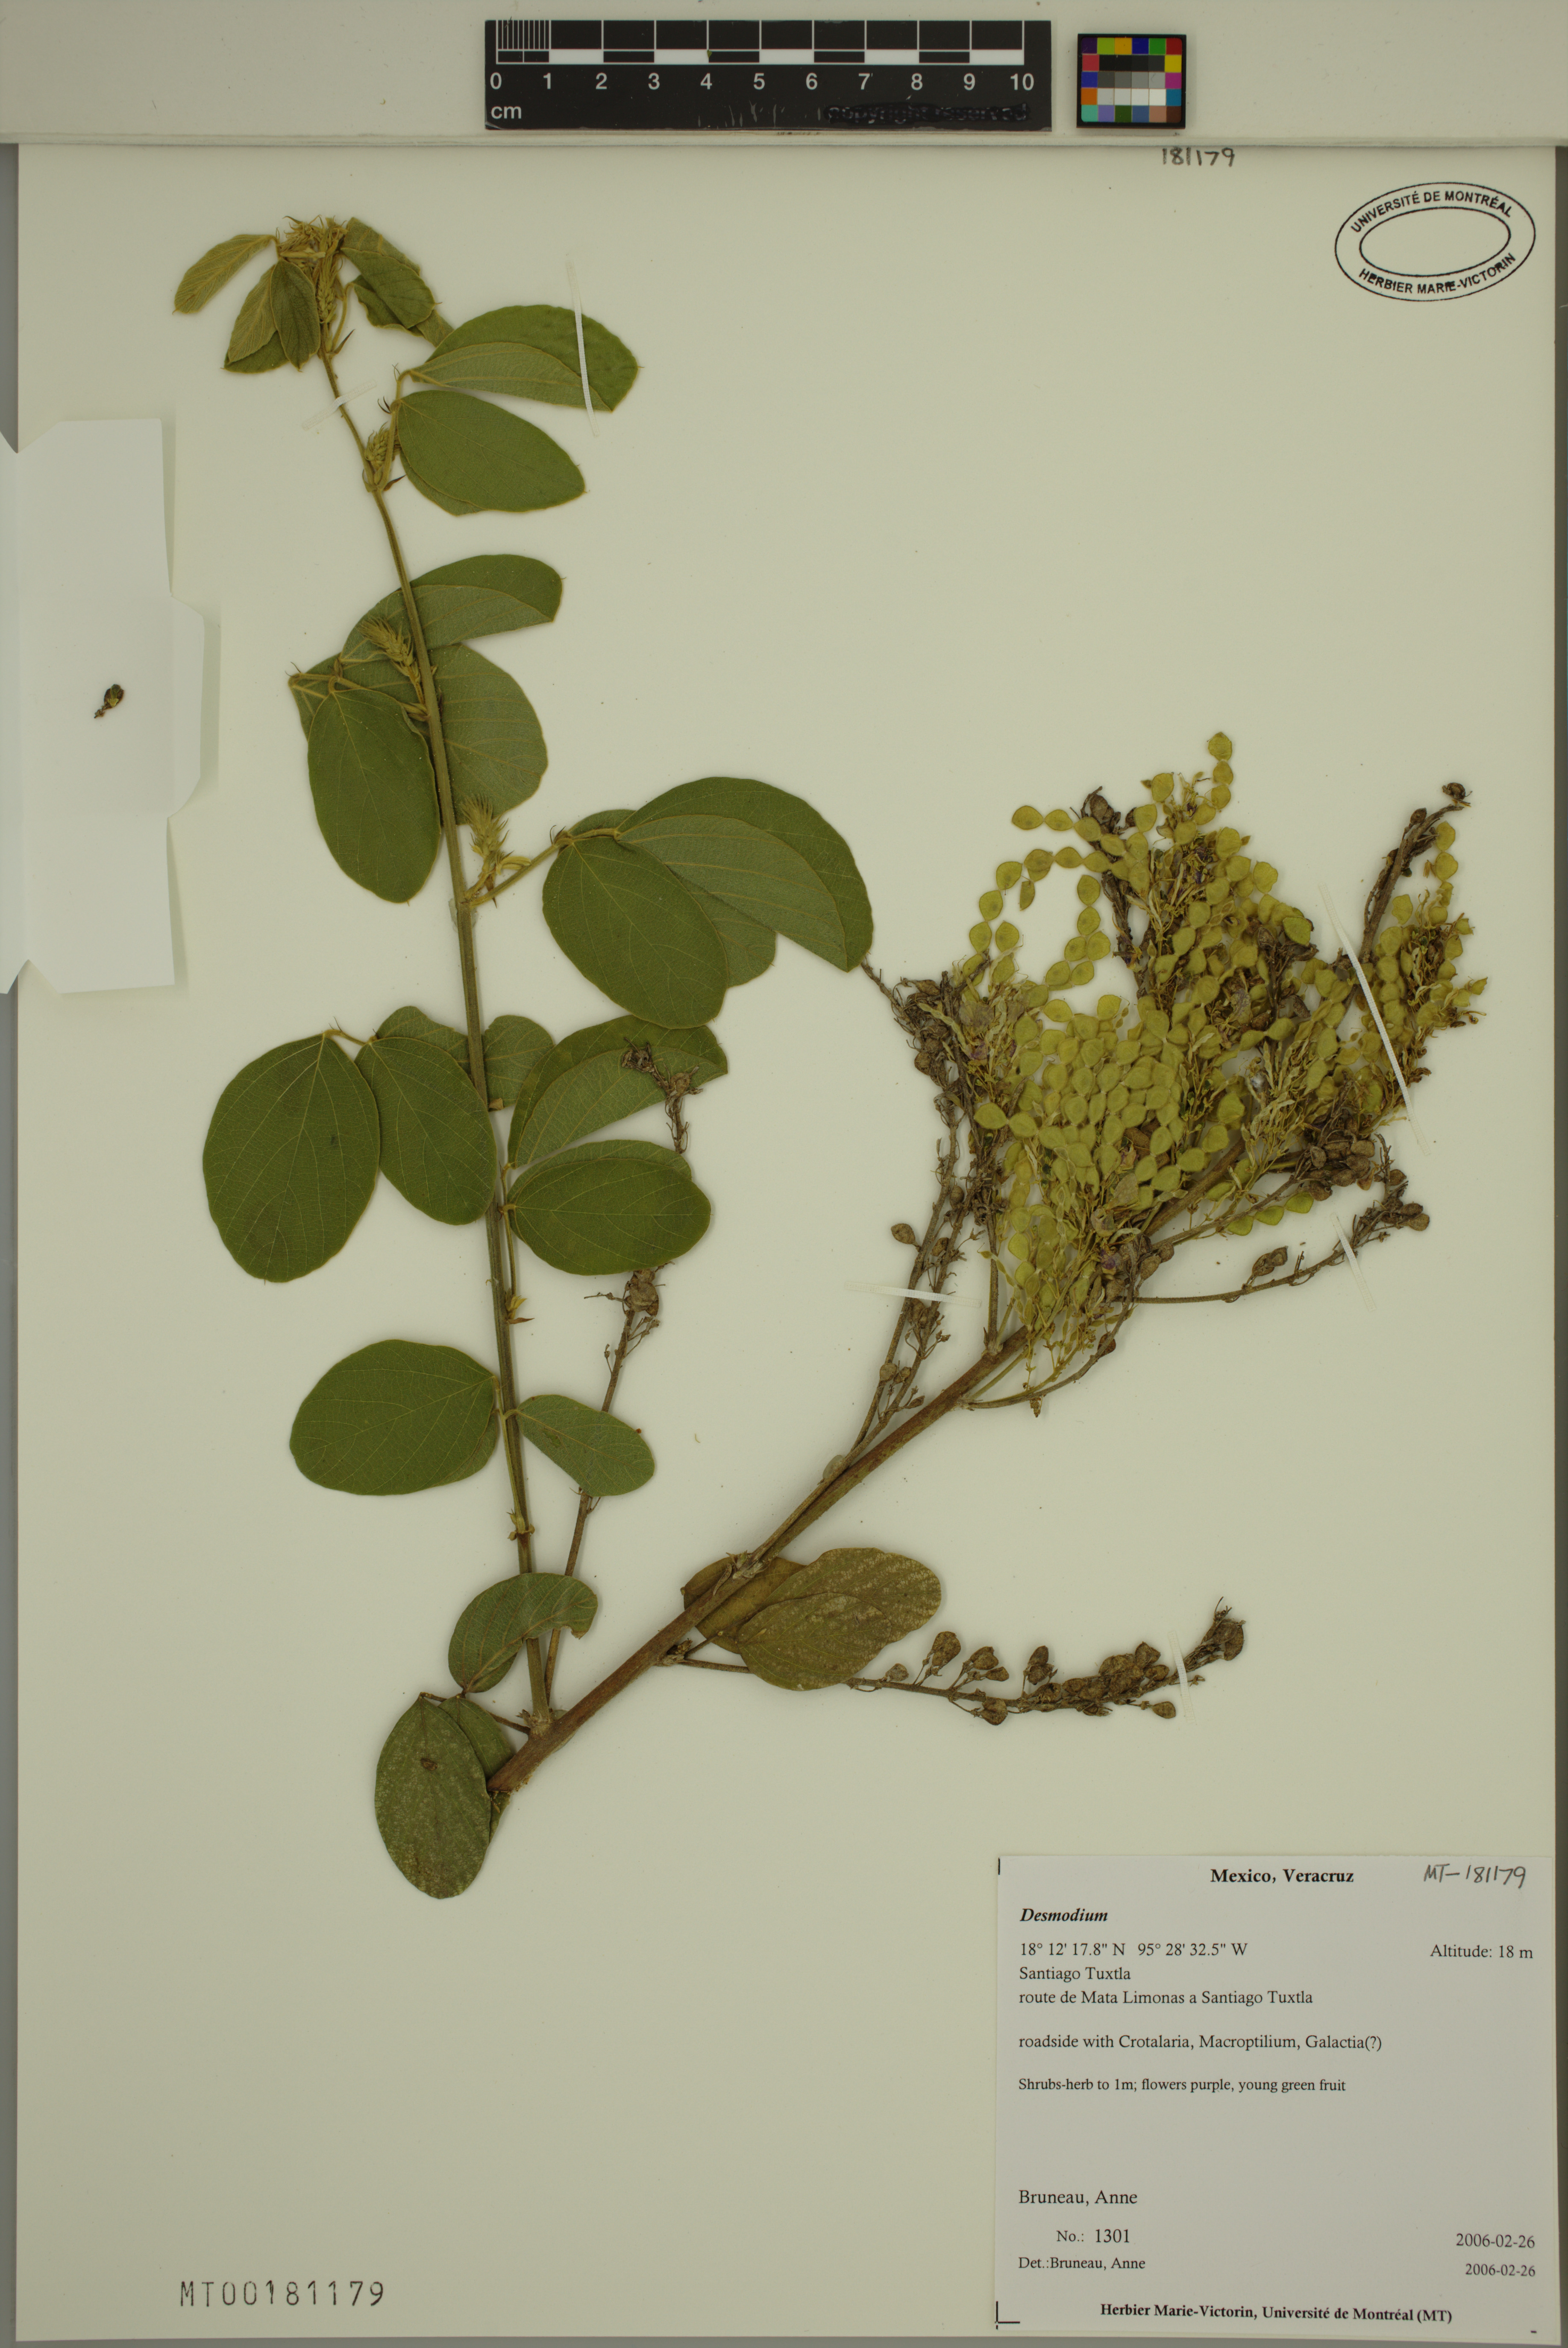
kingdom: Plantae
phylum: Tracheophyta
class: Magnoliopsida
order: Fabales
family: Fabaceae
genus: Desmodium
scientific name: Desmodium
